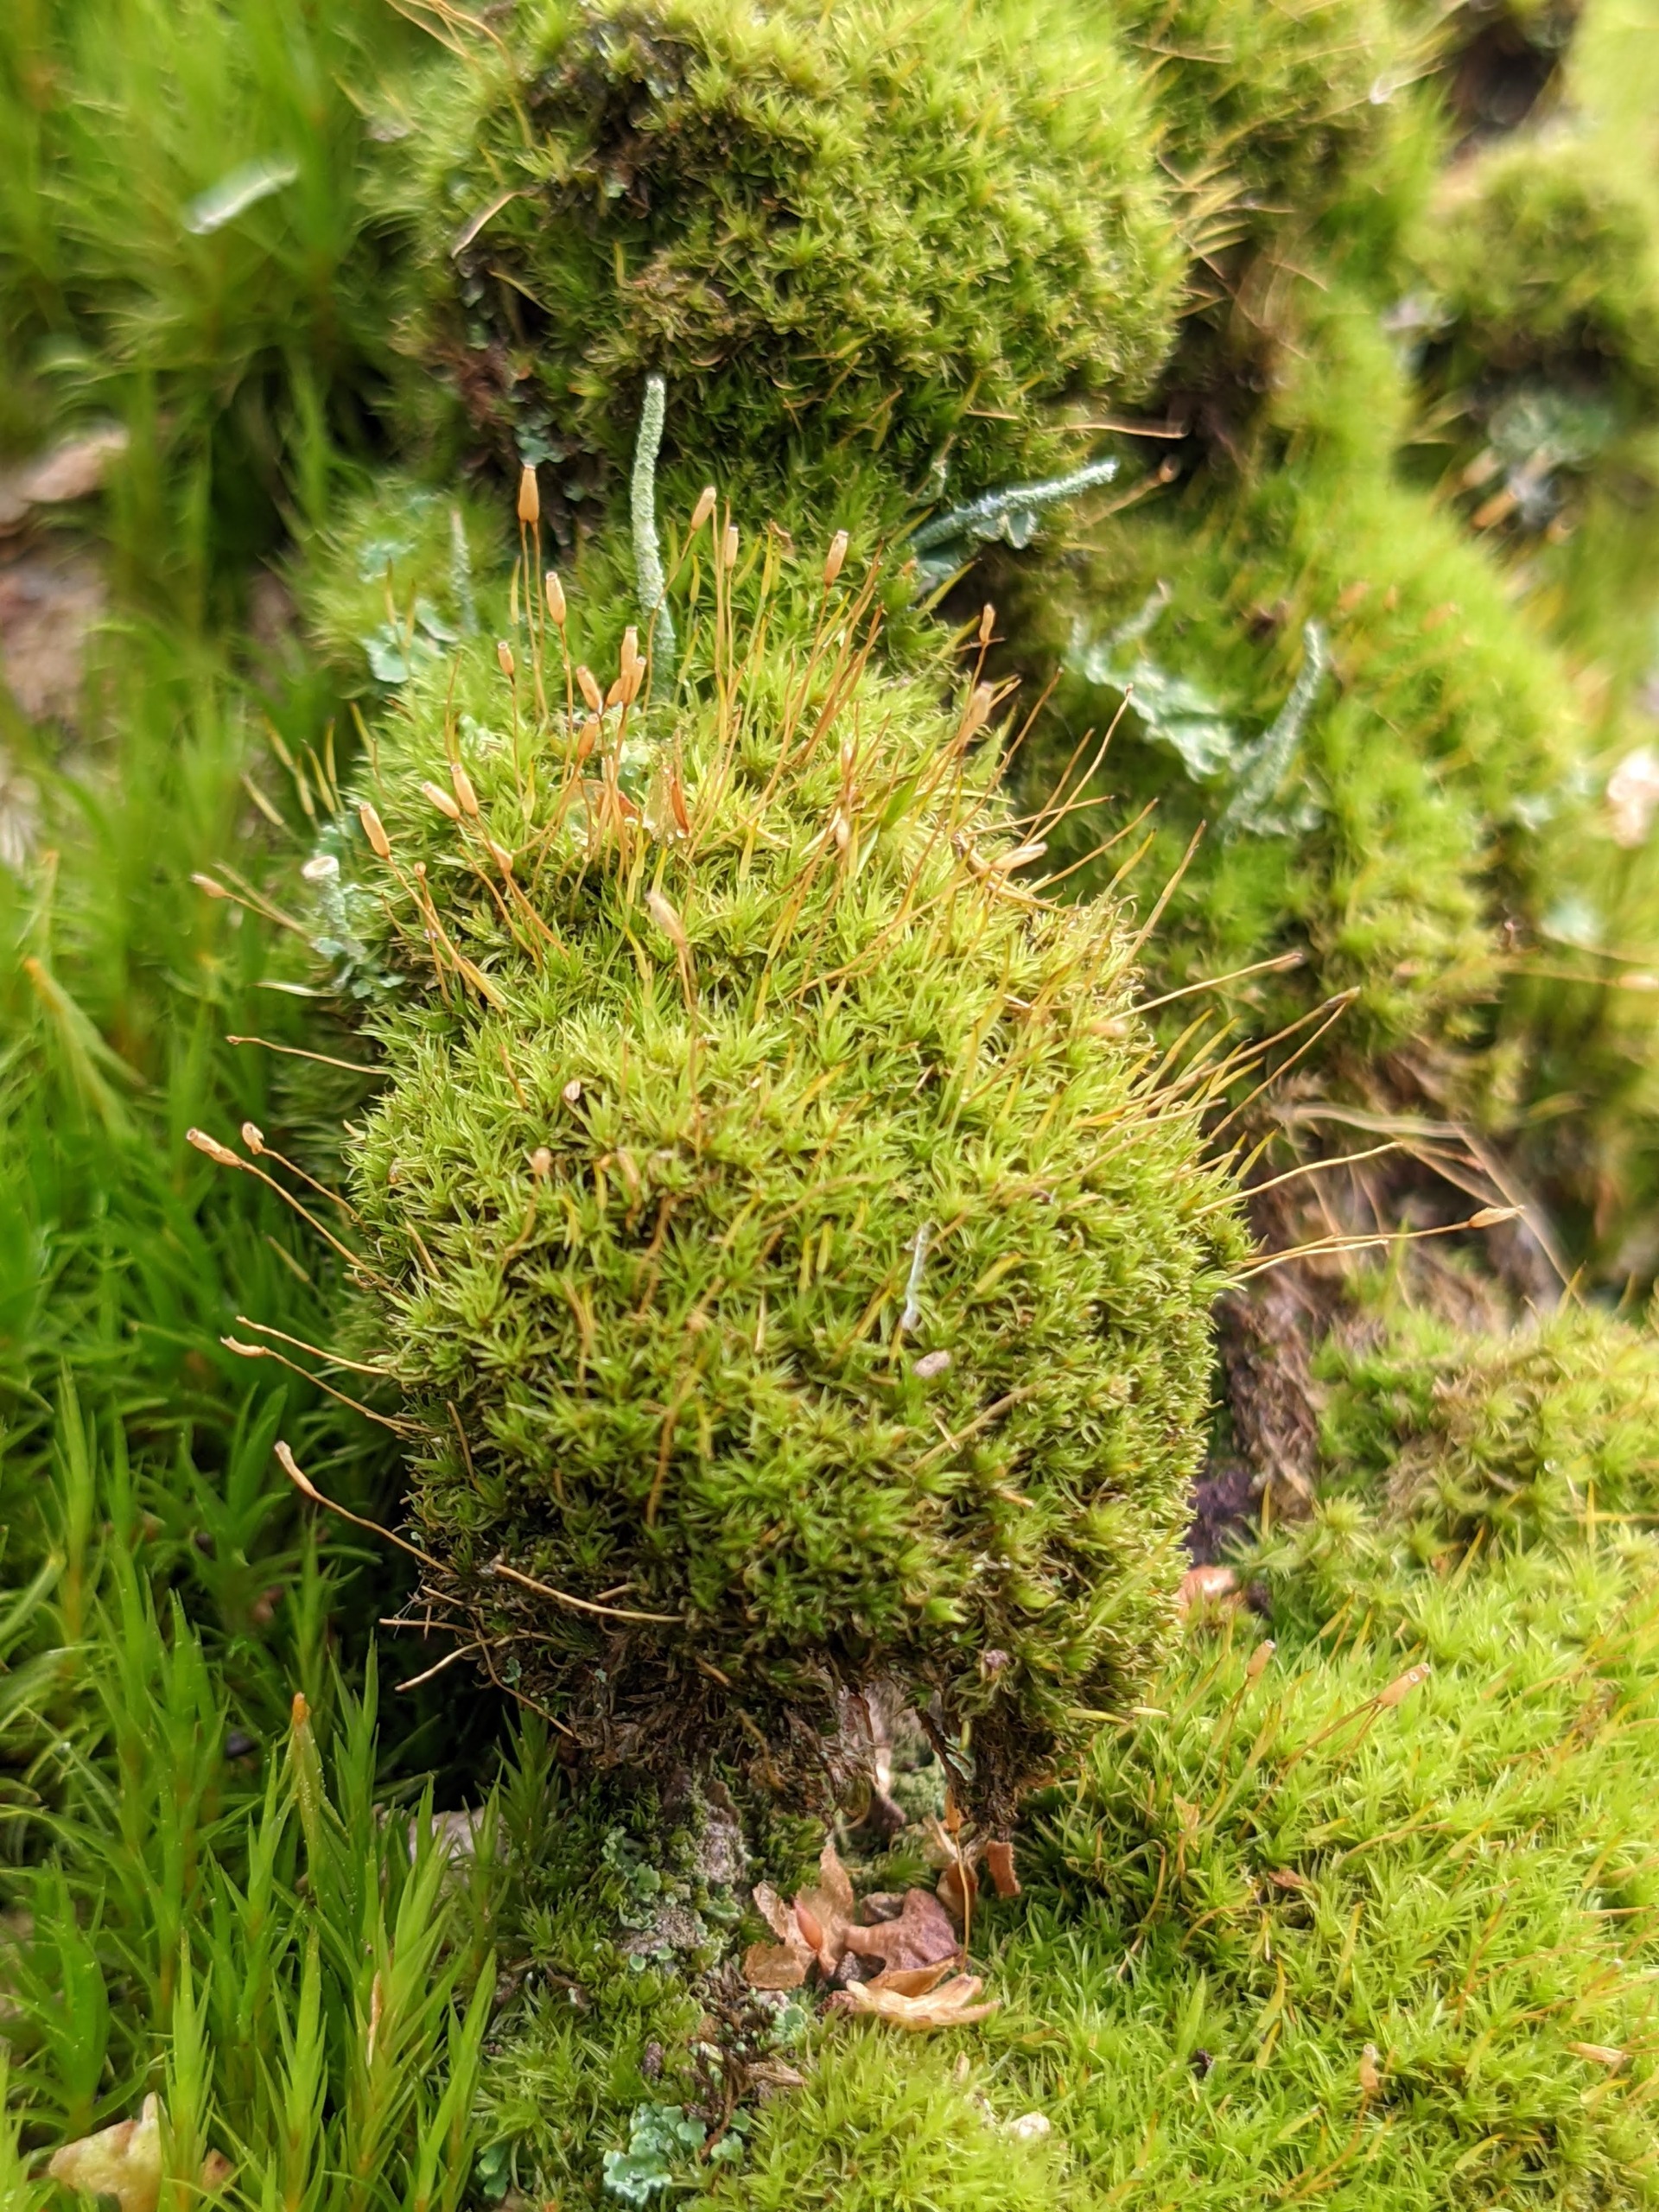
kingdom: Plantae
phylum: Bryophyta
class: Bryopsida
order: Dicranales
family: Rhabdoweisiaceae
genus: Dicranoweisia
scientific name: Dicranoweisia cirrata
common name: Almindelig krøltuemos
